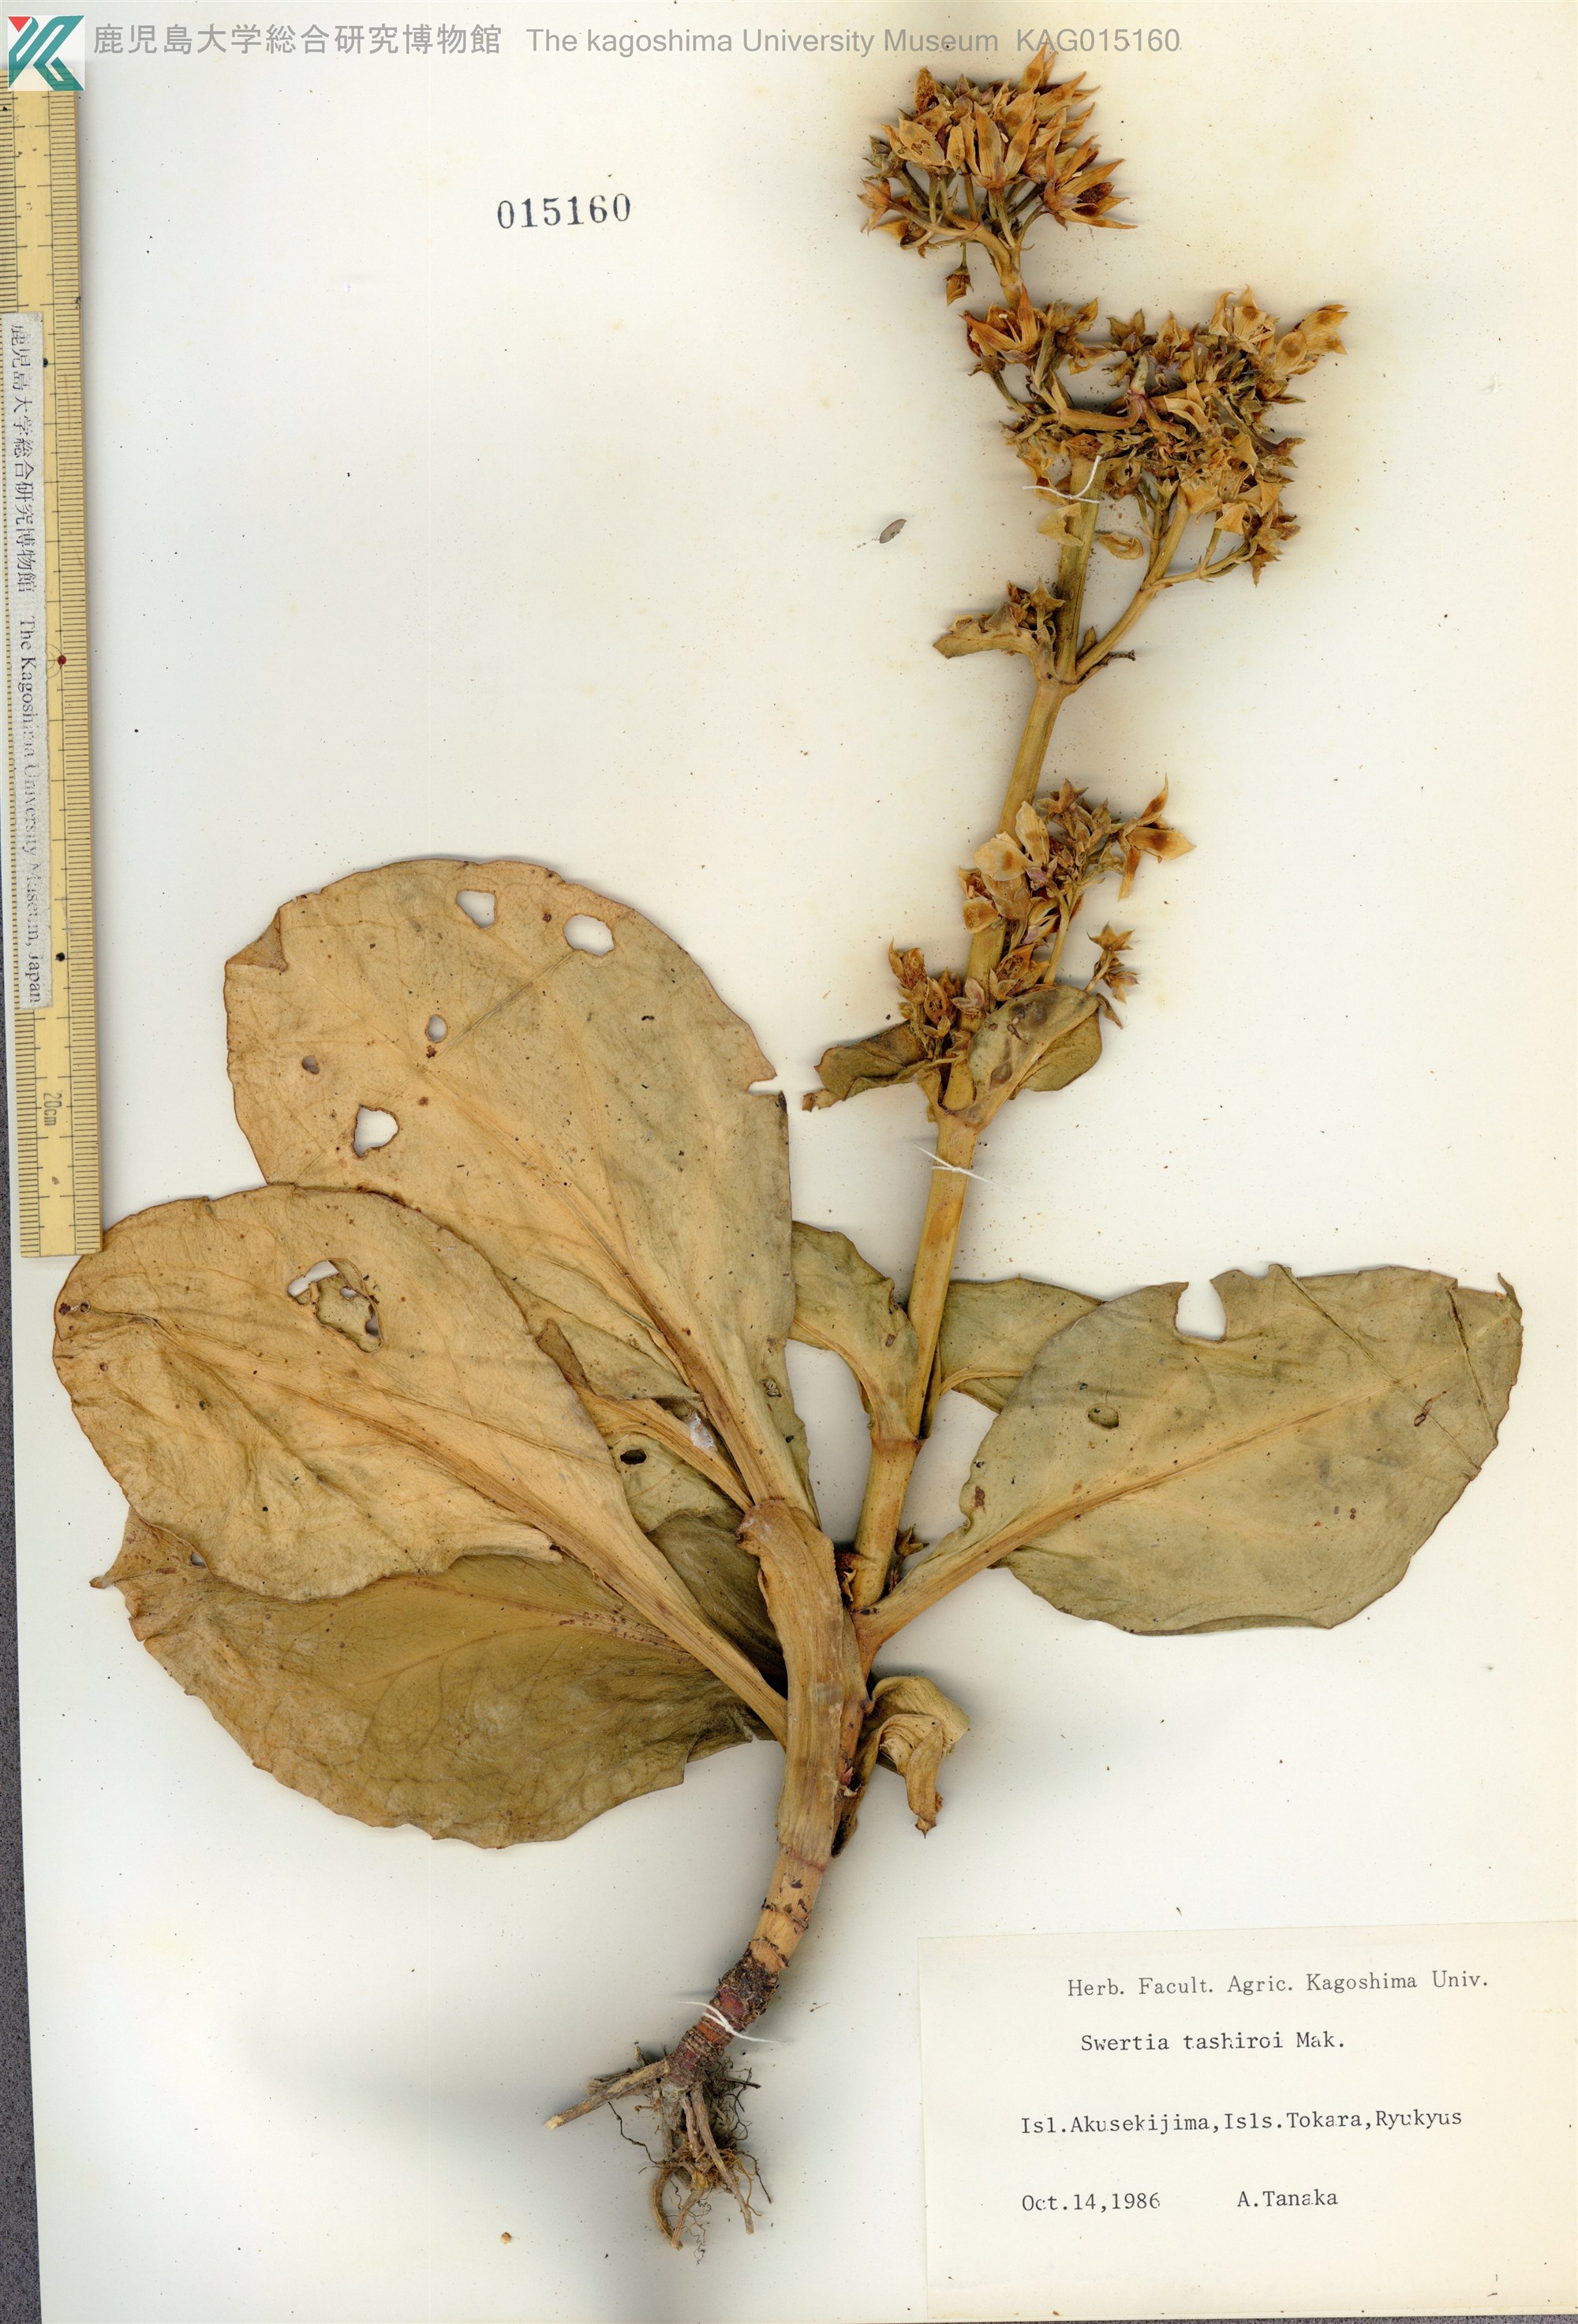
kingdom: Plantae
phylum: Tracheophyta
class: Magnoliopsida
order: Gentianales
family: Gentianaceae
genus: Swertia
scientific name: Swertia tashiroi
